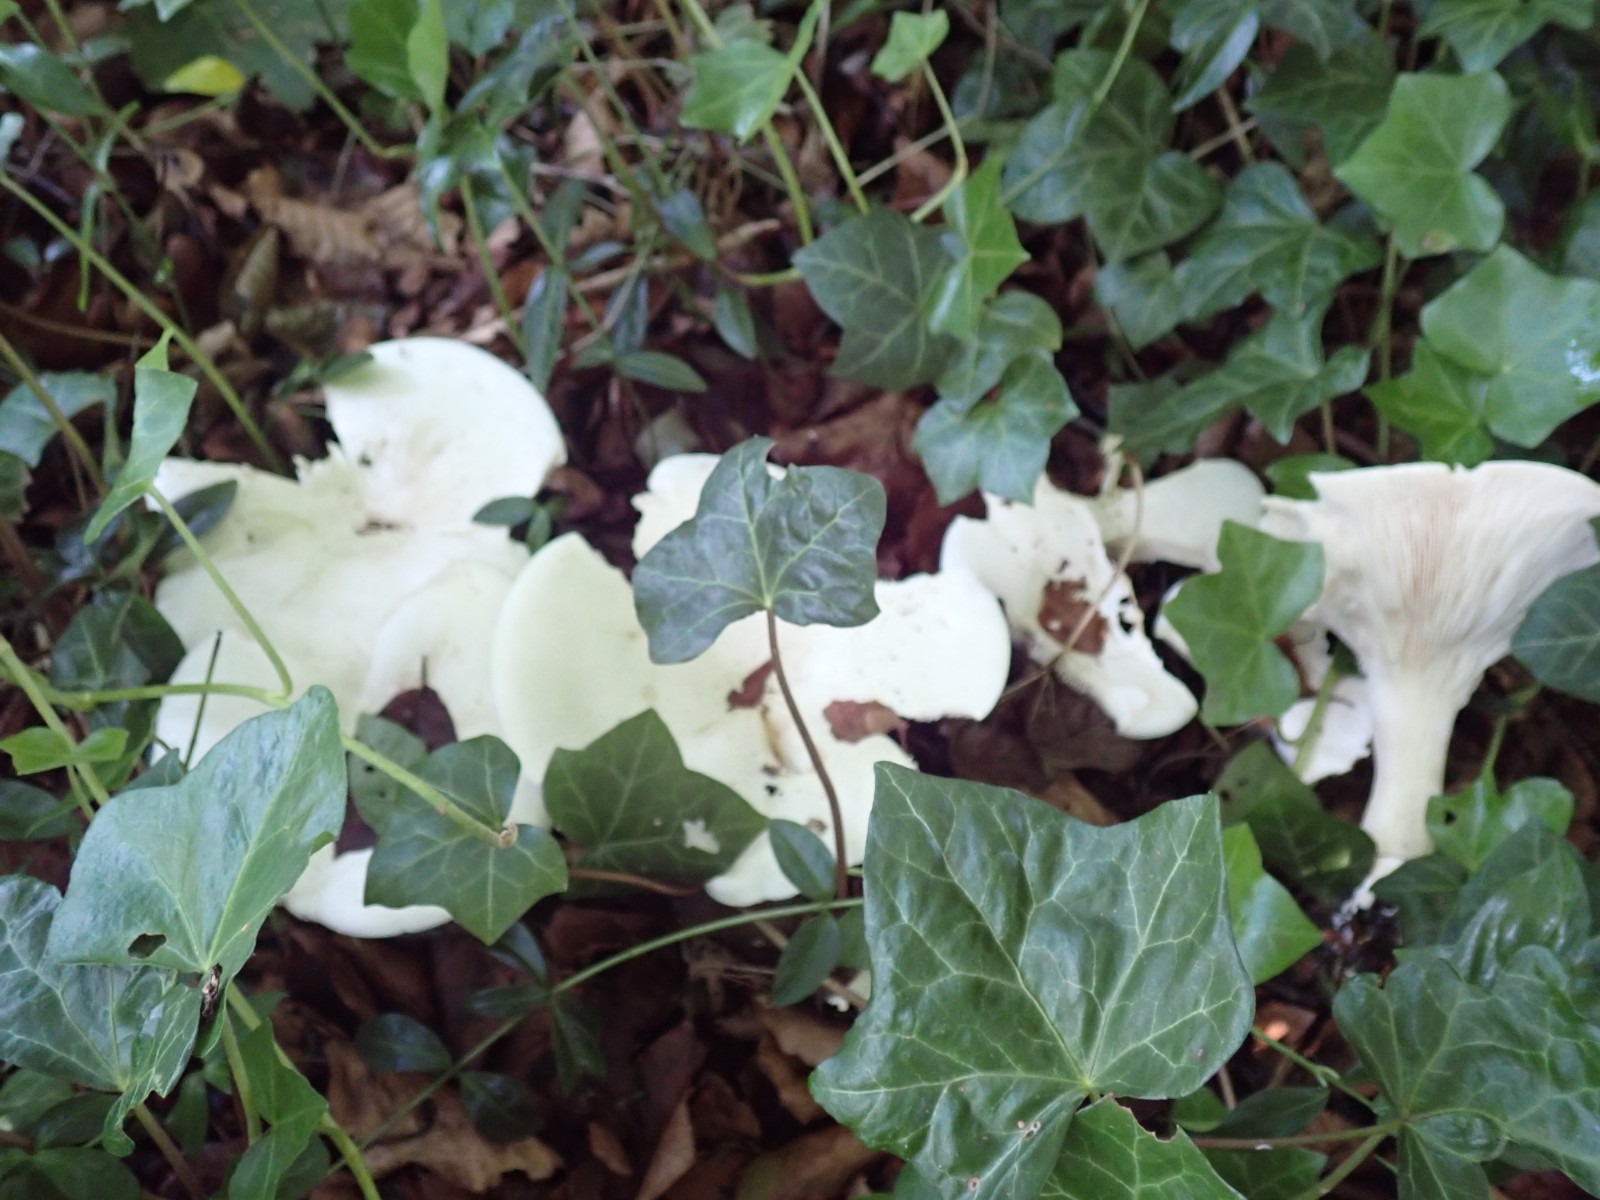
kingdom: Fungi
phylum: Basidiomycota
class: Agaricomycetes
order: Agaricales
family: Tricholomataceae
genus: Aspropaxillus
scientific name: Aspropaxillus giganteus
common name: kæmpe-tragtridderhat
